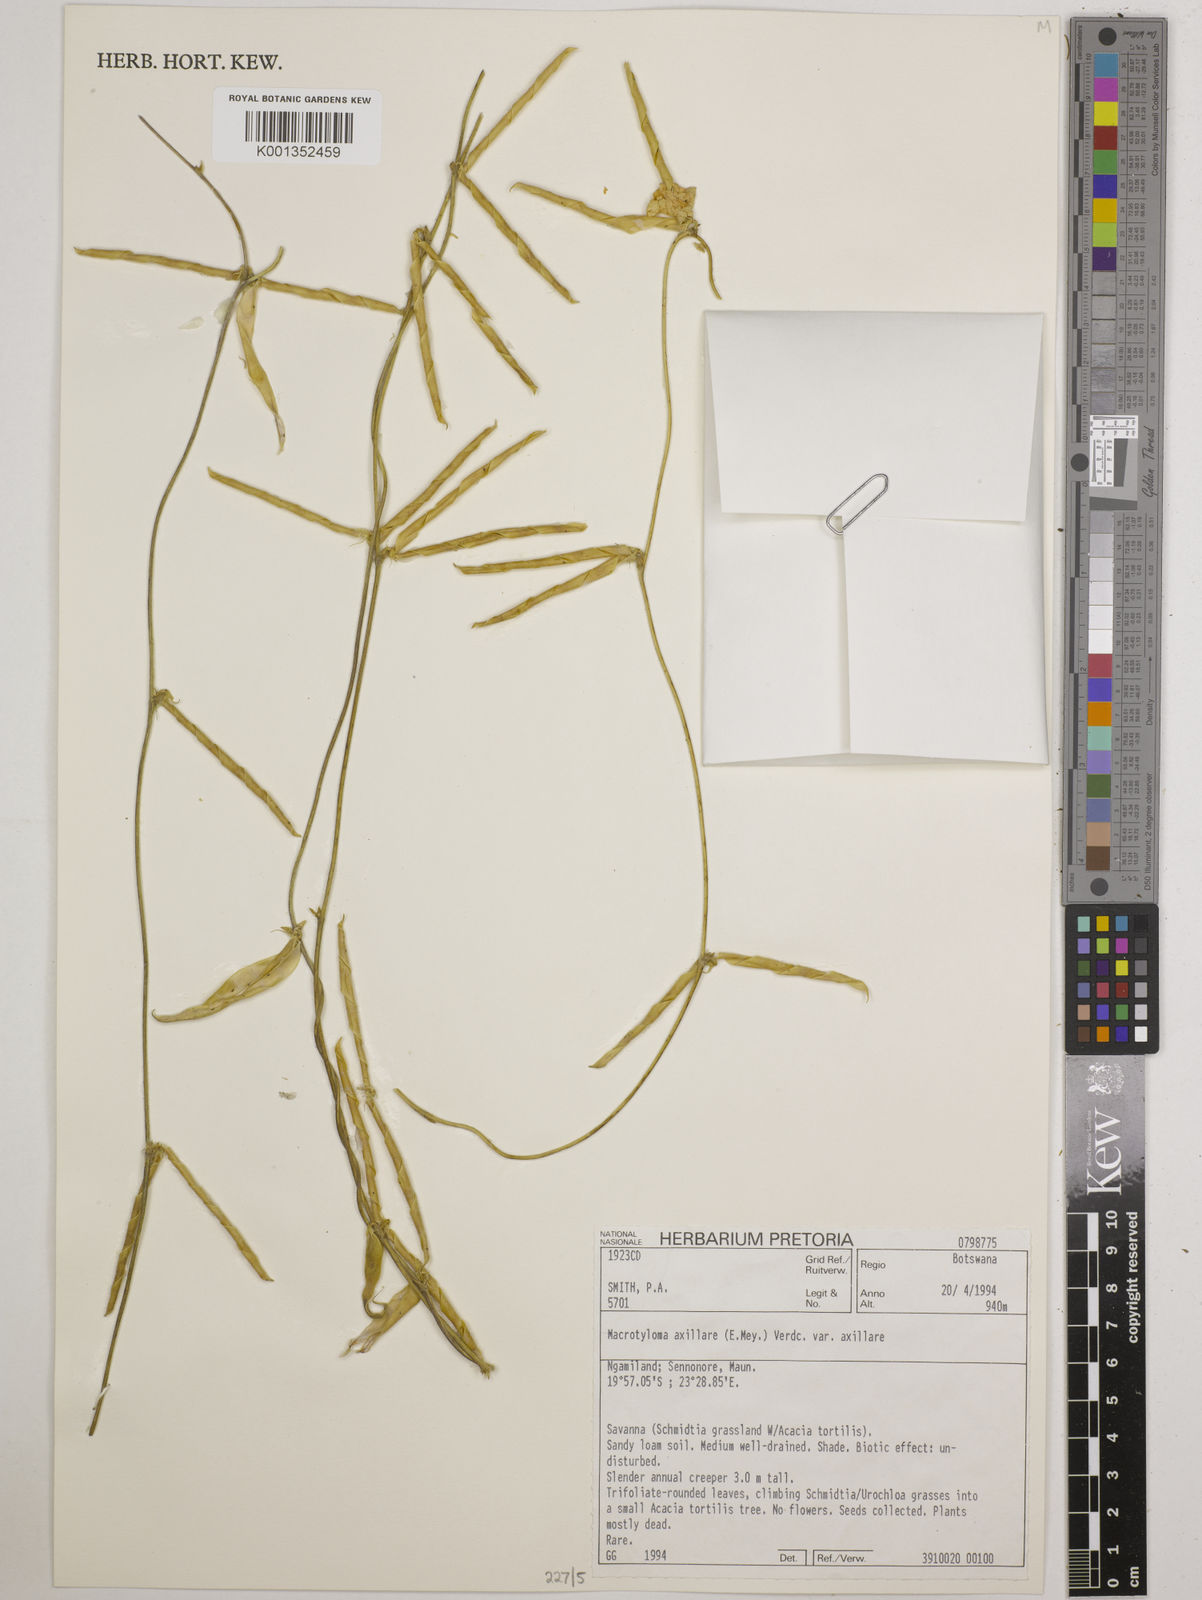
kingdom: Plantae
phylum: Tracheophyta
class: Magnoliopsida
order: Fabales
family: Fabaceae
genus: Macrotyloma
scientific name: Macrotyloma axillare
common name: Perennial horsegram
